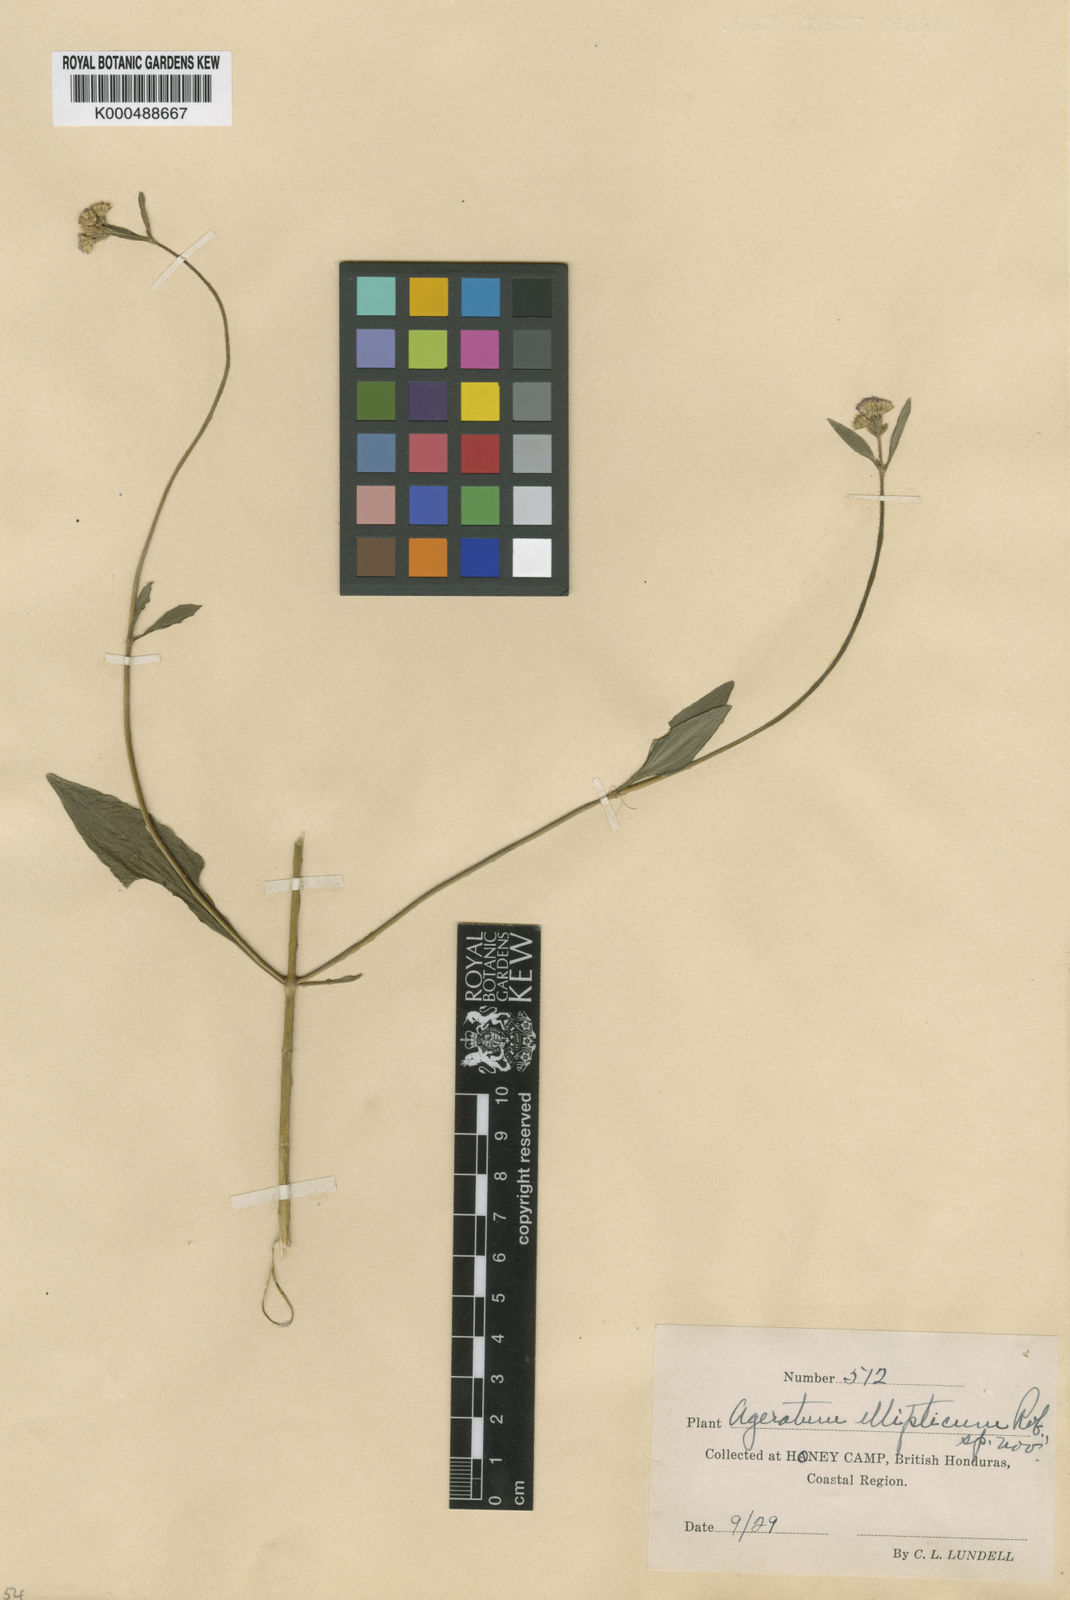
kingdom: Plantae
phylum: Tracheophyta
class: Magnoliopsida
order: Asterales
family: Asteraceae
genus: Ageratum
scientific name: Ageratum ellipticum
